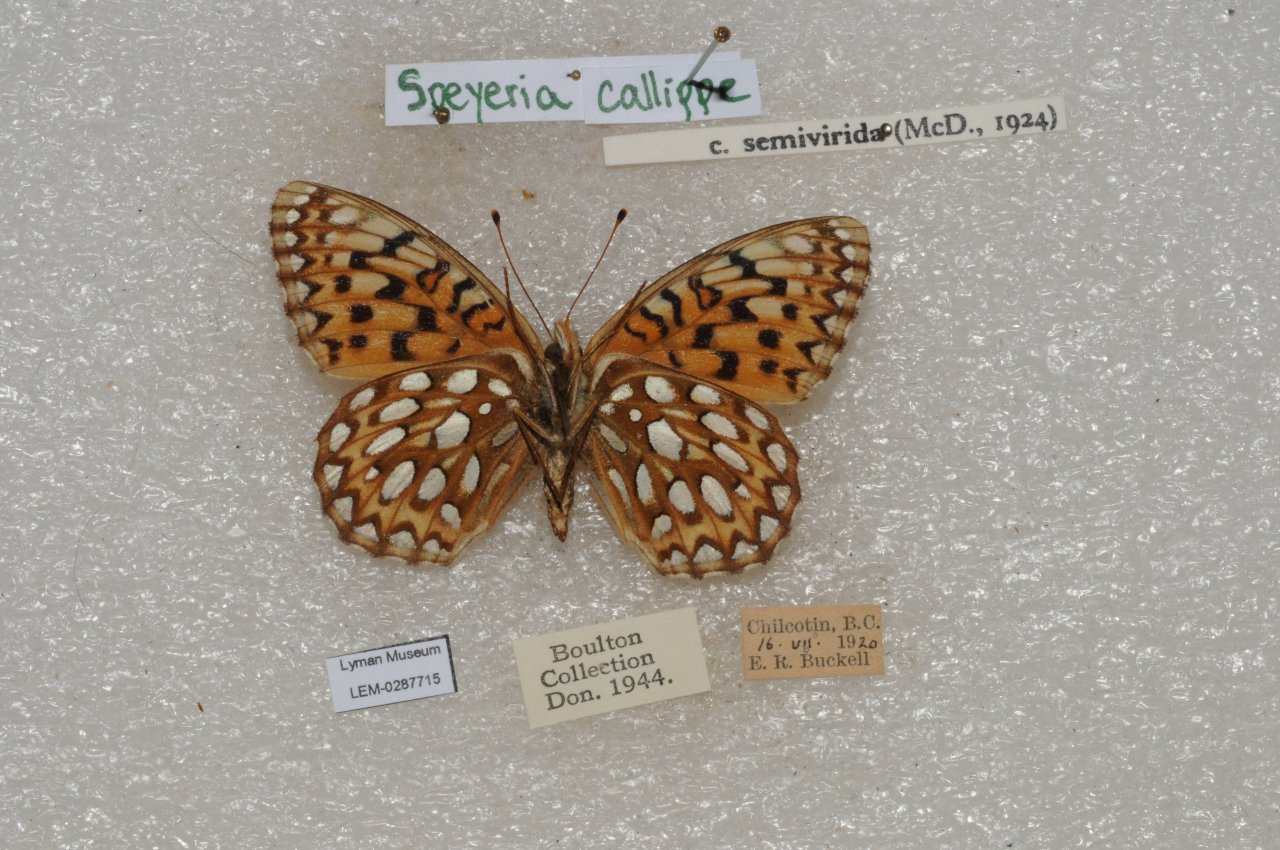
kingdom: Animalia
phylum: Arthropoda
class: Insecta
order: Lepidoptera
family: Nymphalidae
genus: Speyeria
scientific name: Speyeria callippe
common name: Callippe Fritillary
